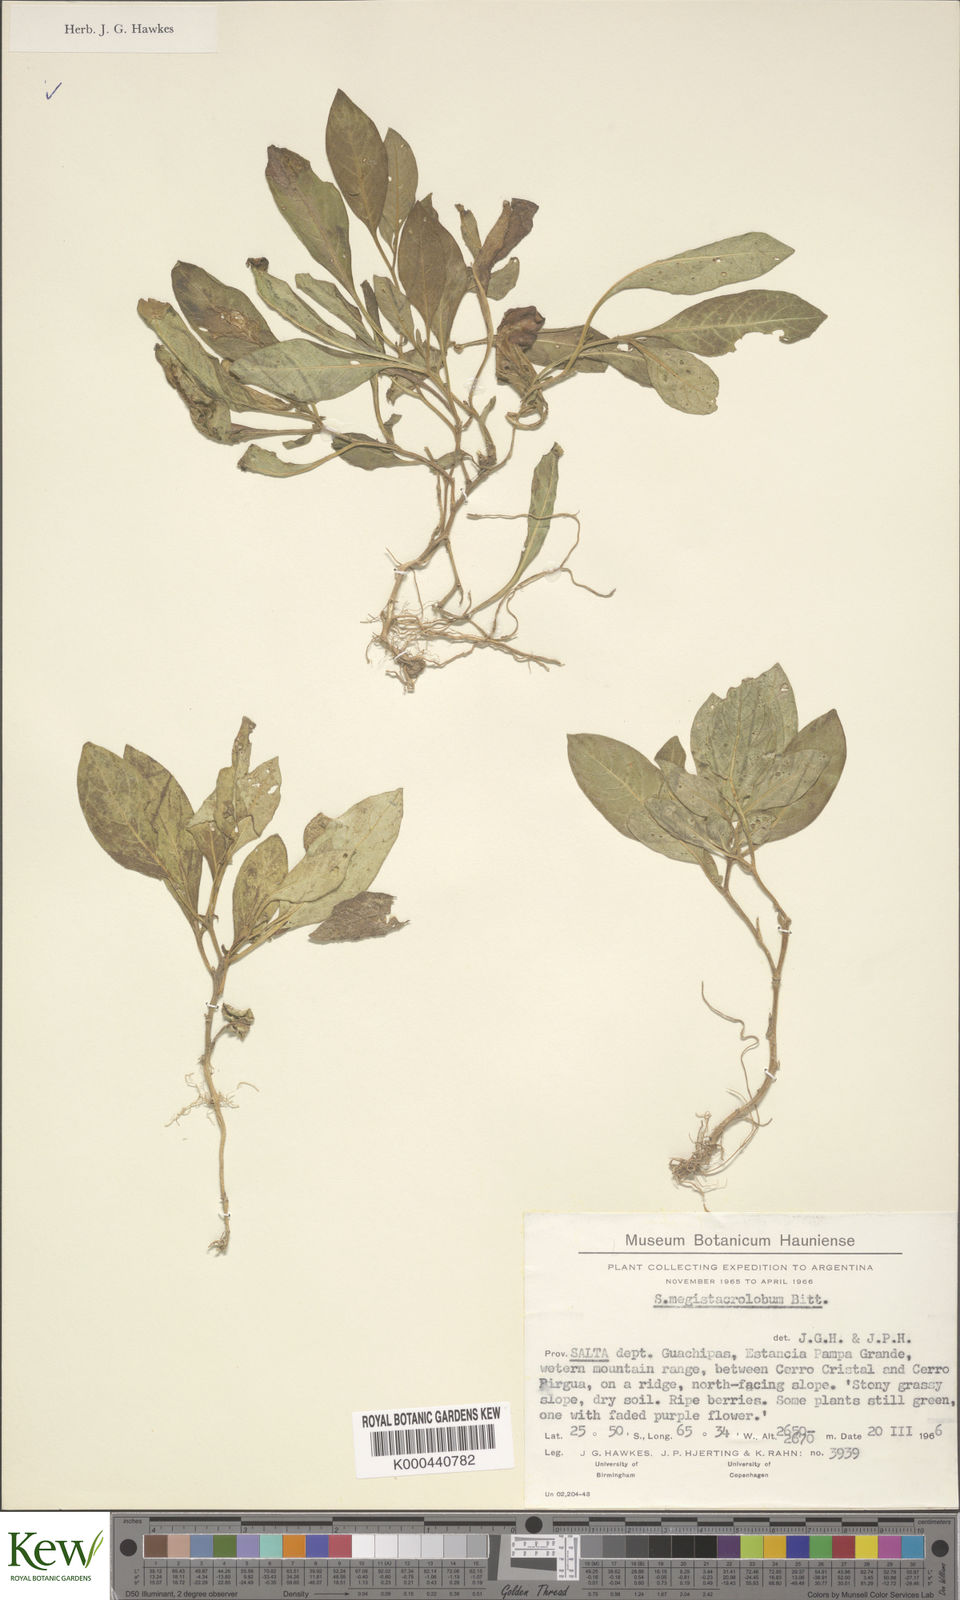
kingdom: Plantae
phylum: Tracheophyta
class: Magnoliopsida
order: Solanales
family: Solanaceae
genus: Solanum
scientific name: Solanum boliviense
